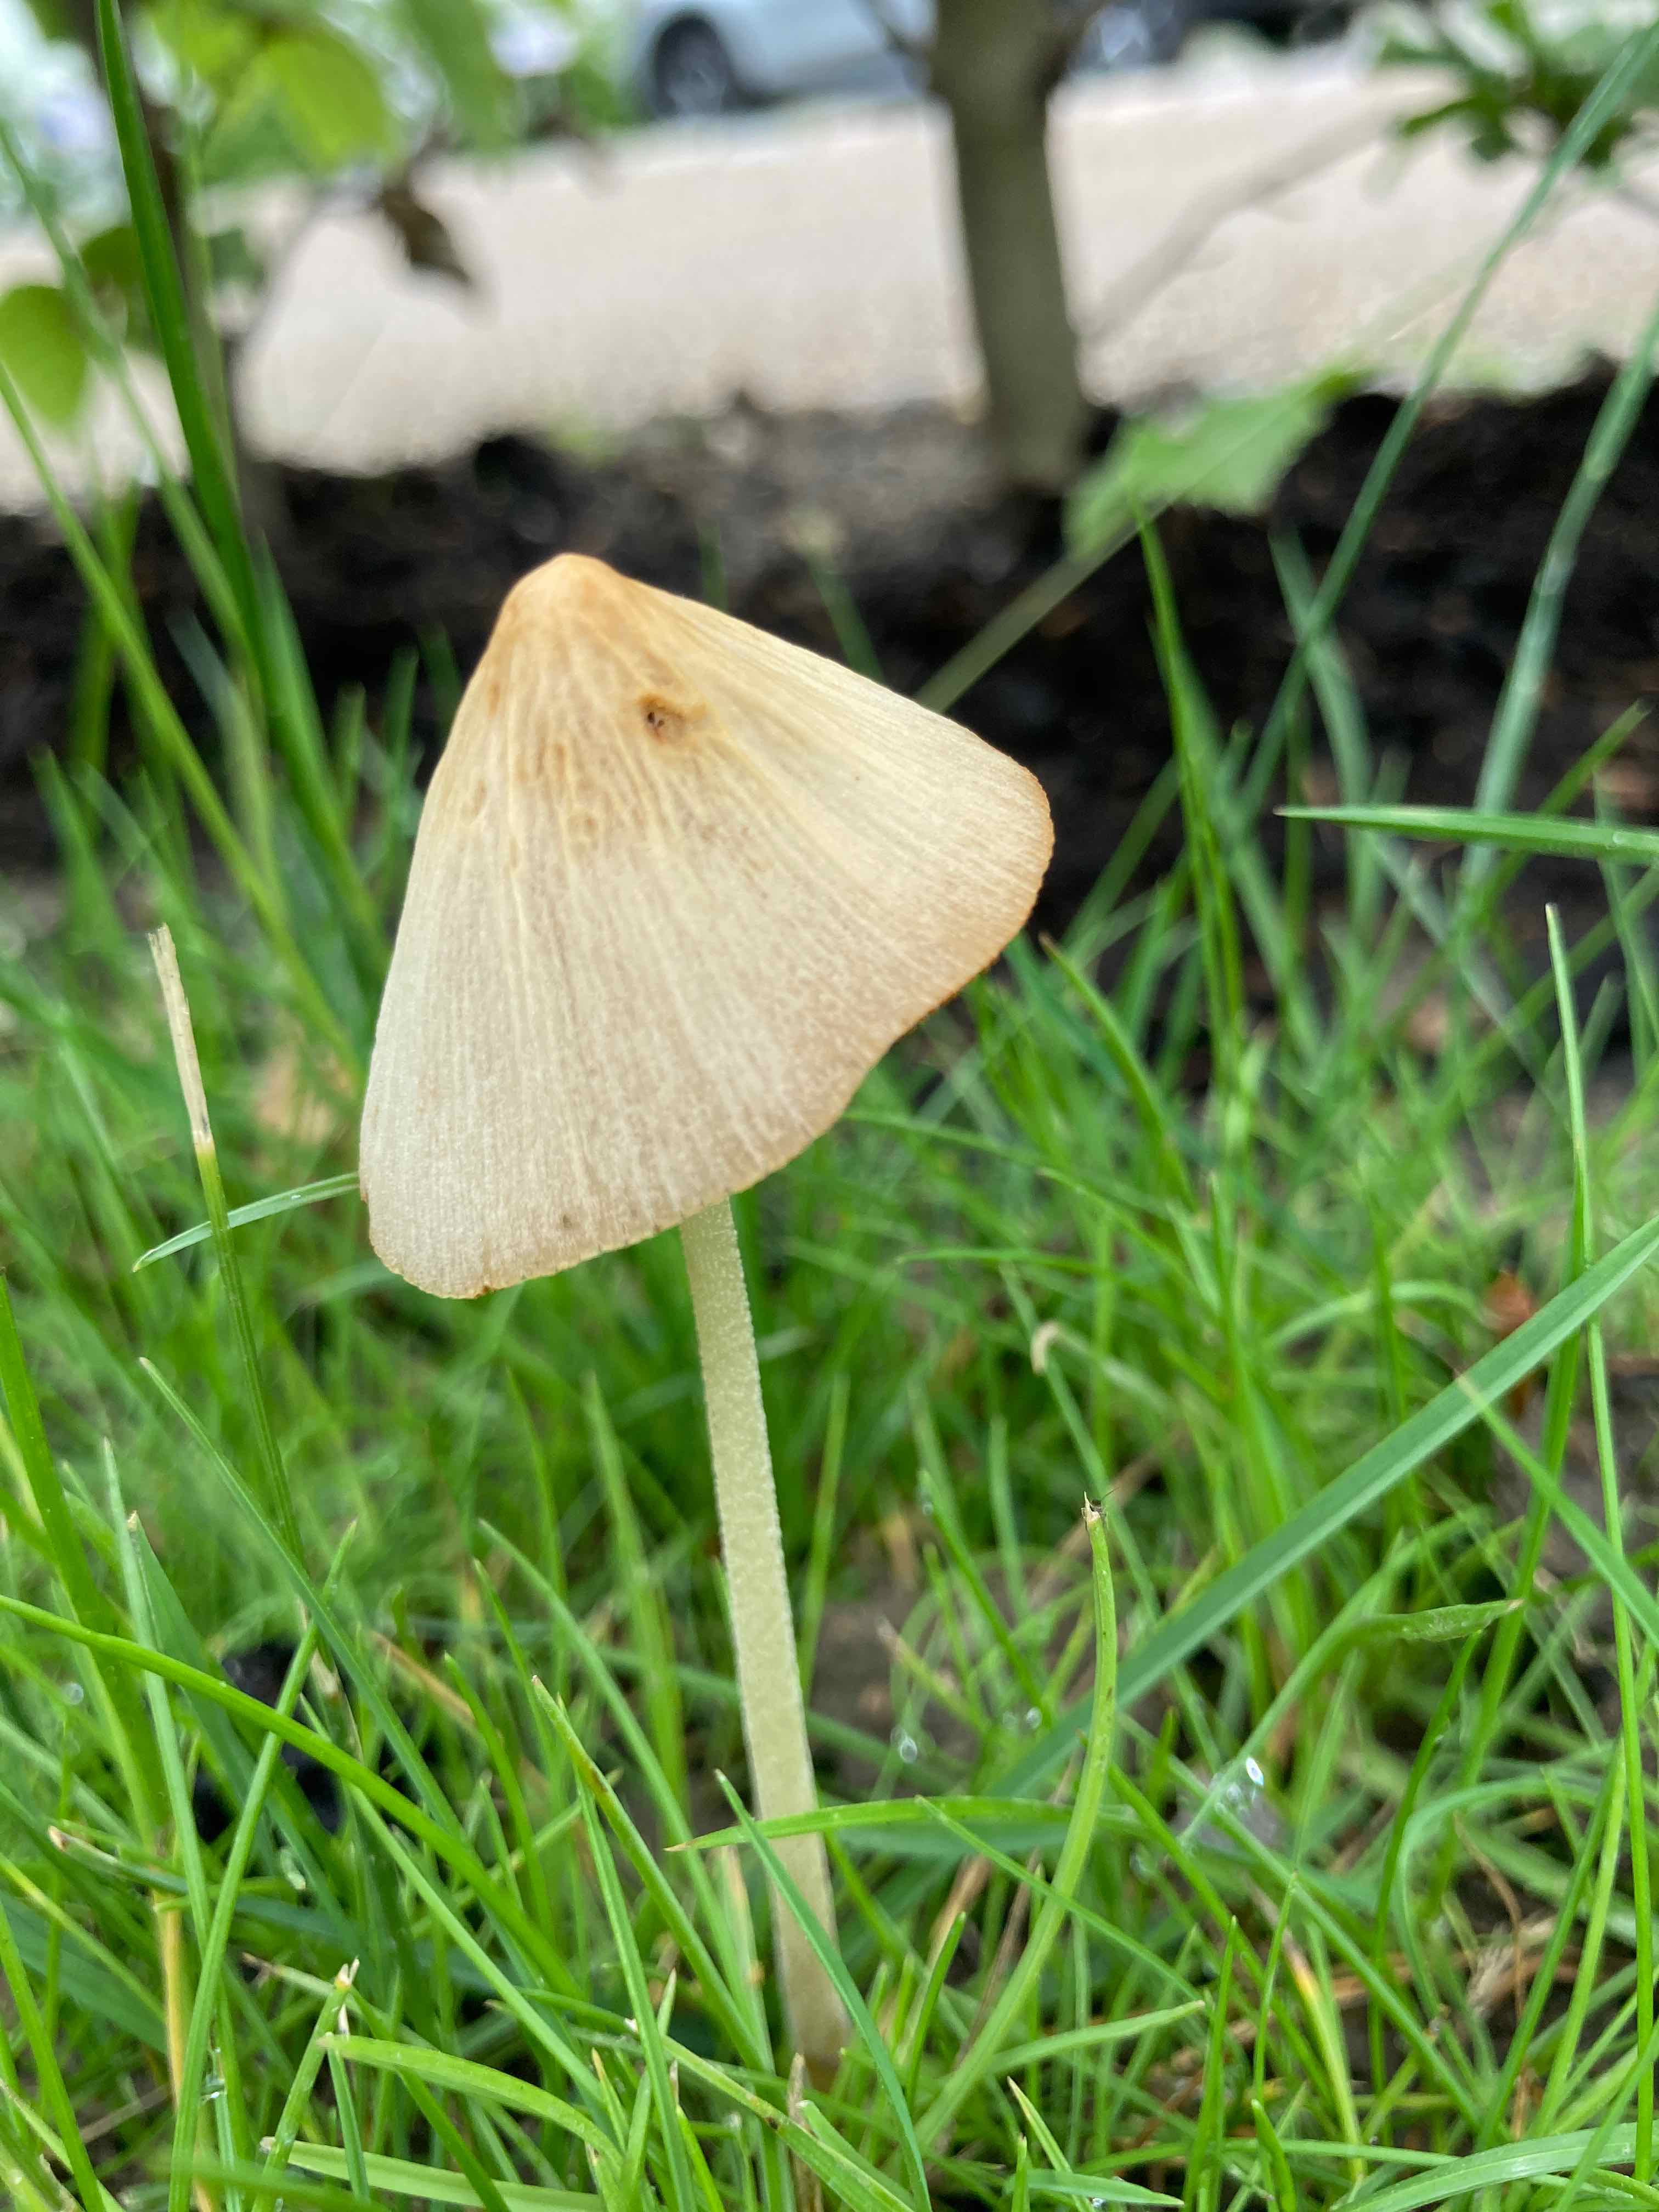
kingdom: Fungi
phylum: Basidiomycota
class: Agaricomycetes
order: Agaricales
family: Bolbitiaceae
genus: Conocybe
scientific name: Conocybe
